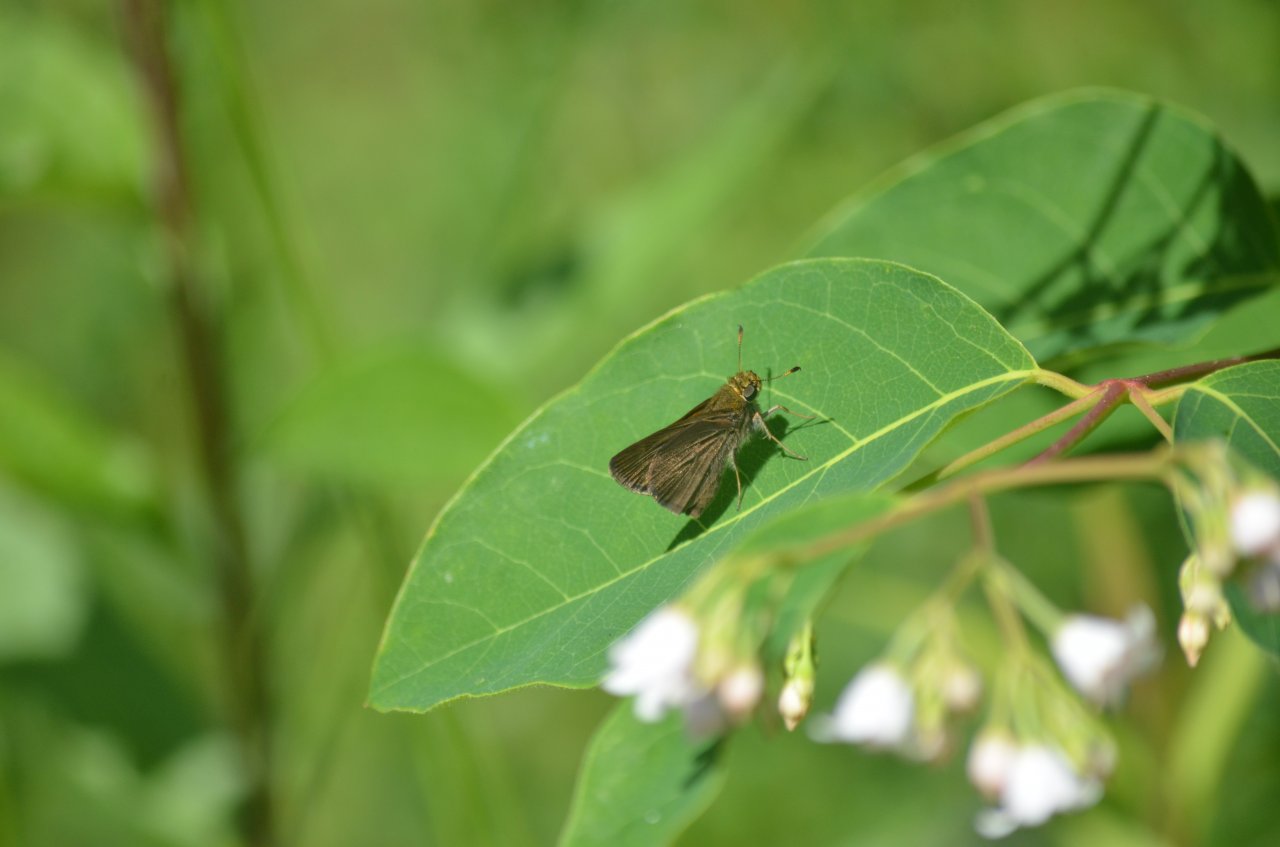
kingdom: Animalia
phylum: Arthropoda
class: Insecta
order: Lepidoptera
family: Hesperiidae
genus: Euphyes
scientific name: Euphyes vestris
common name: Dun Skipper
